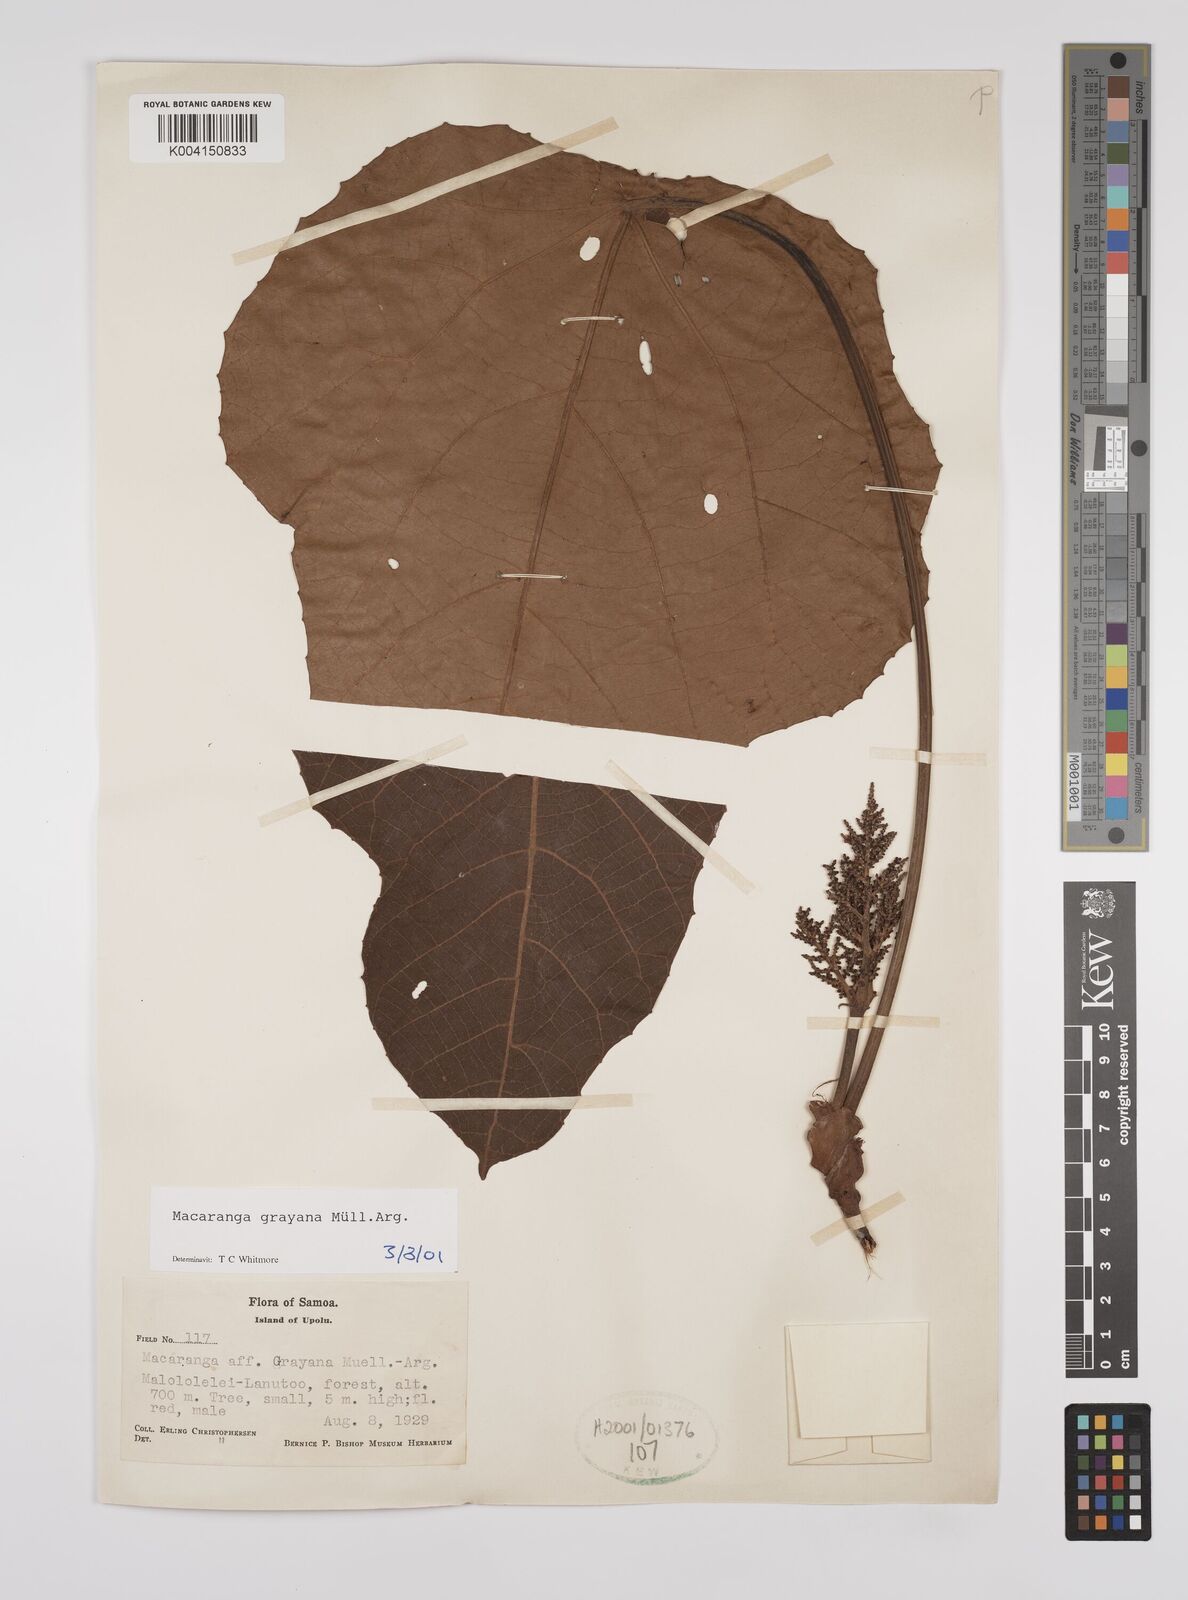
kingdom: Plantae
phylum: Tracheophyta
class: Magnoliopsida
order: Malpighiales
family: Euphorbiaceae
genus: Macaranga
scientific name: Macaranga grayana
